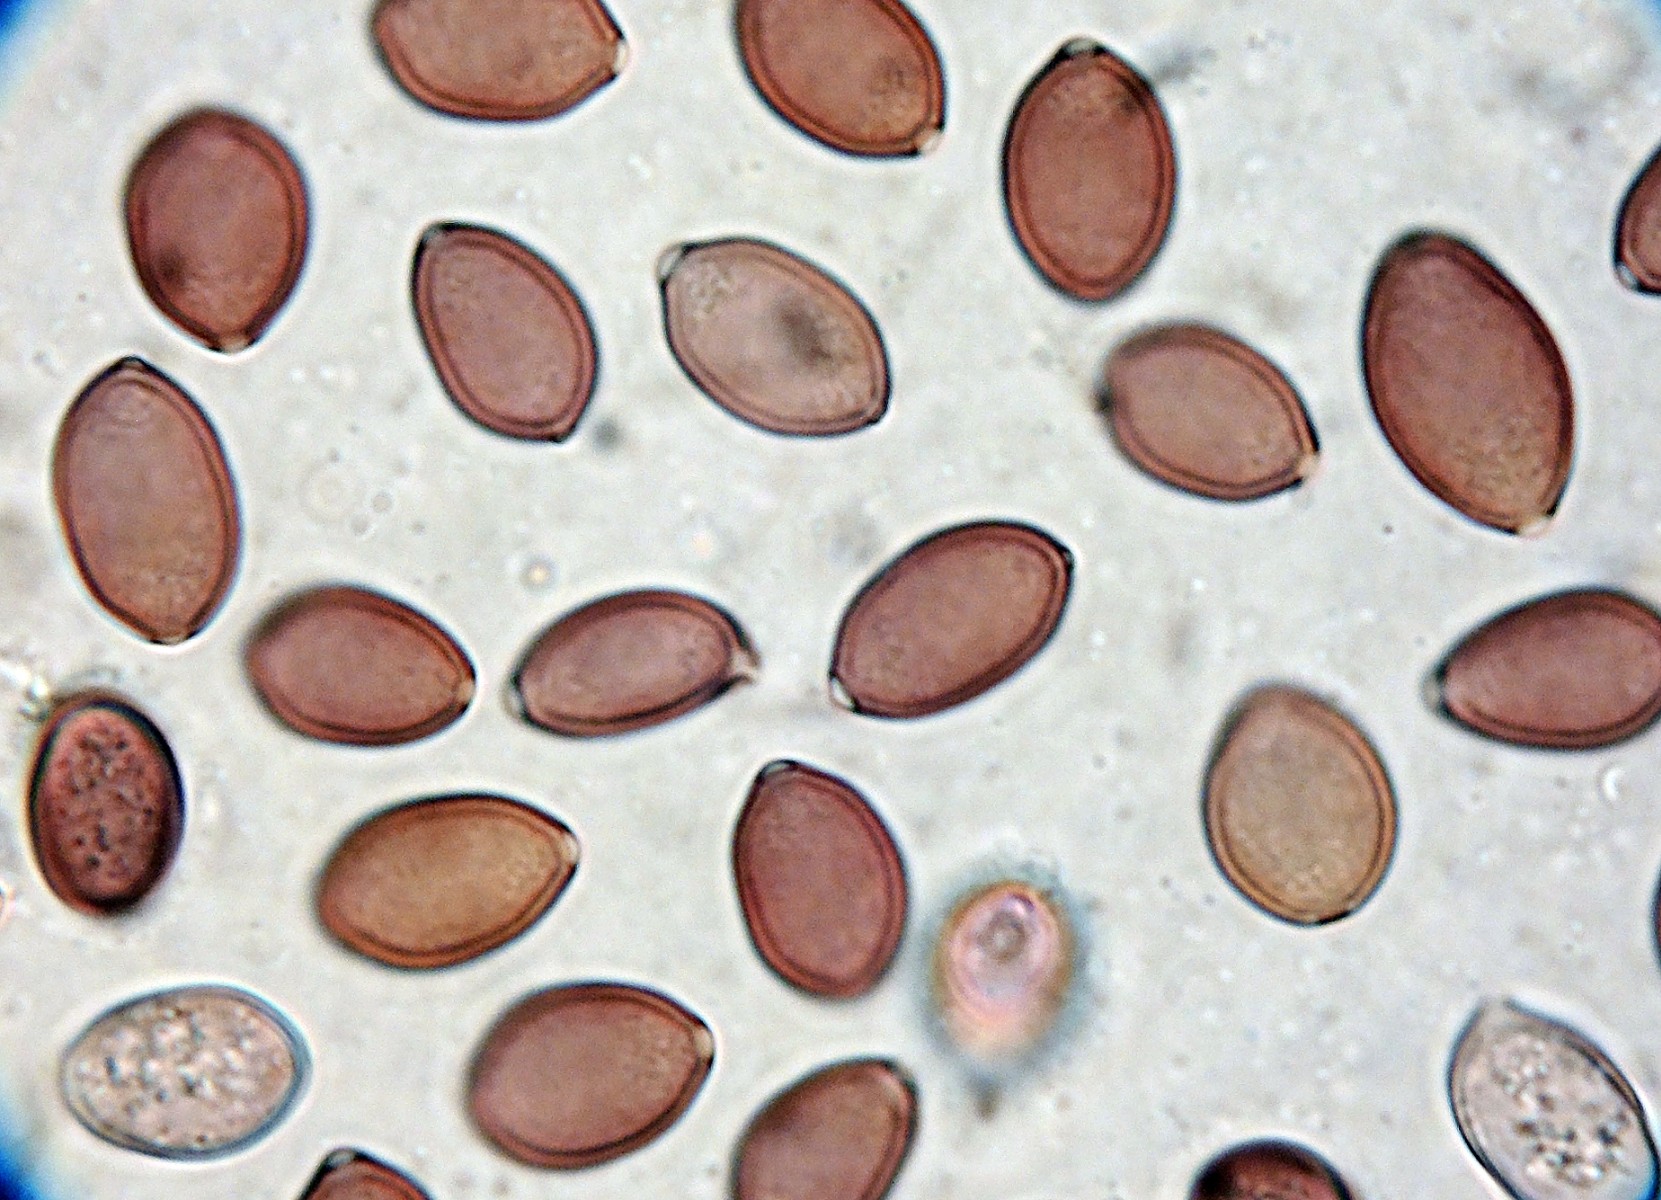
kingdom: Fungi
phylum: Basidiomycota
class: Agaricomycetes
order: Agaricales
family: Strophariaceae
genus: Deconica
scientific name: Deconica merdaria
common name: møg-stråhat
